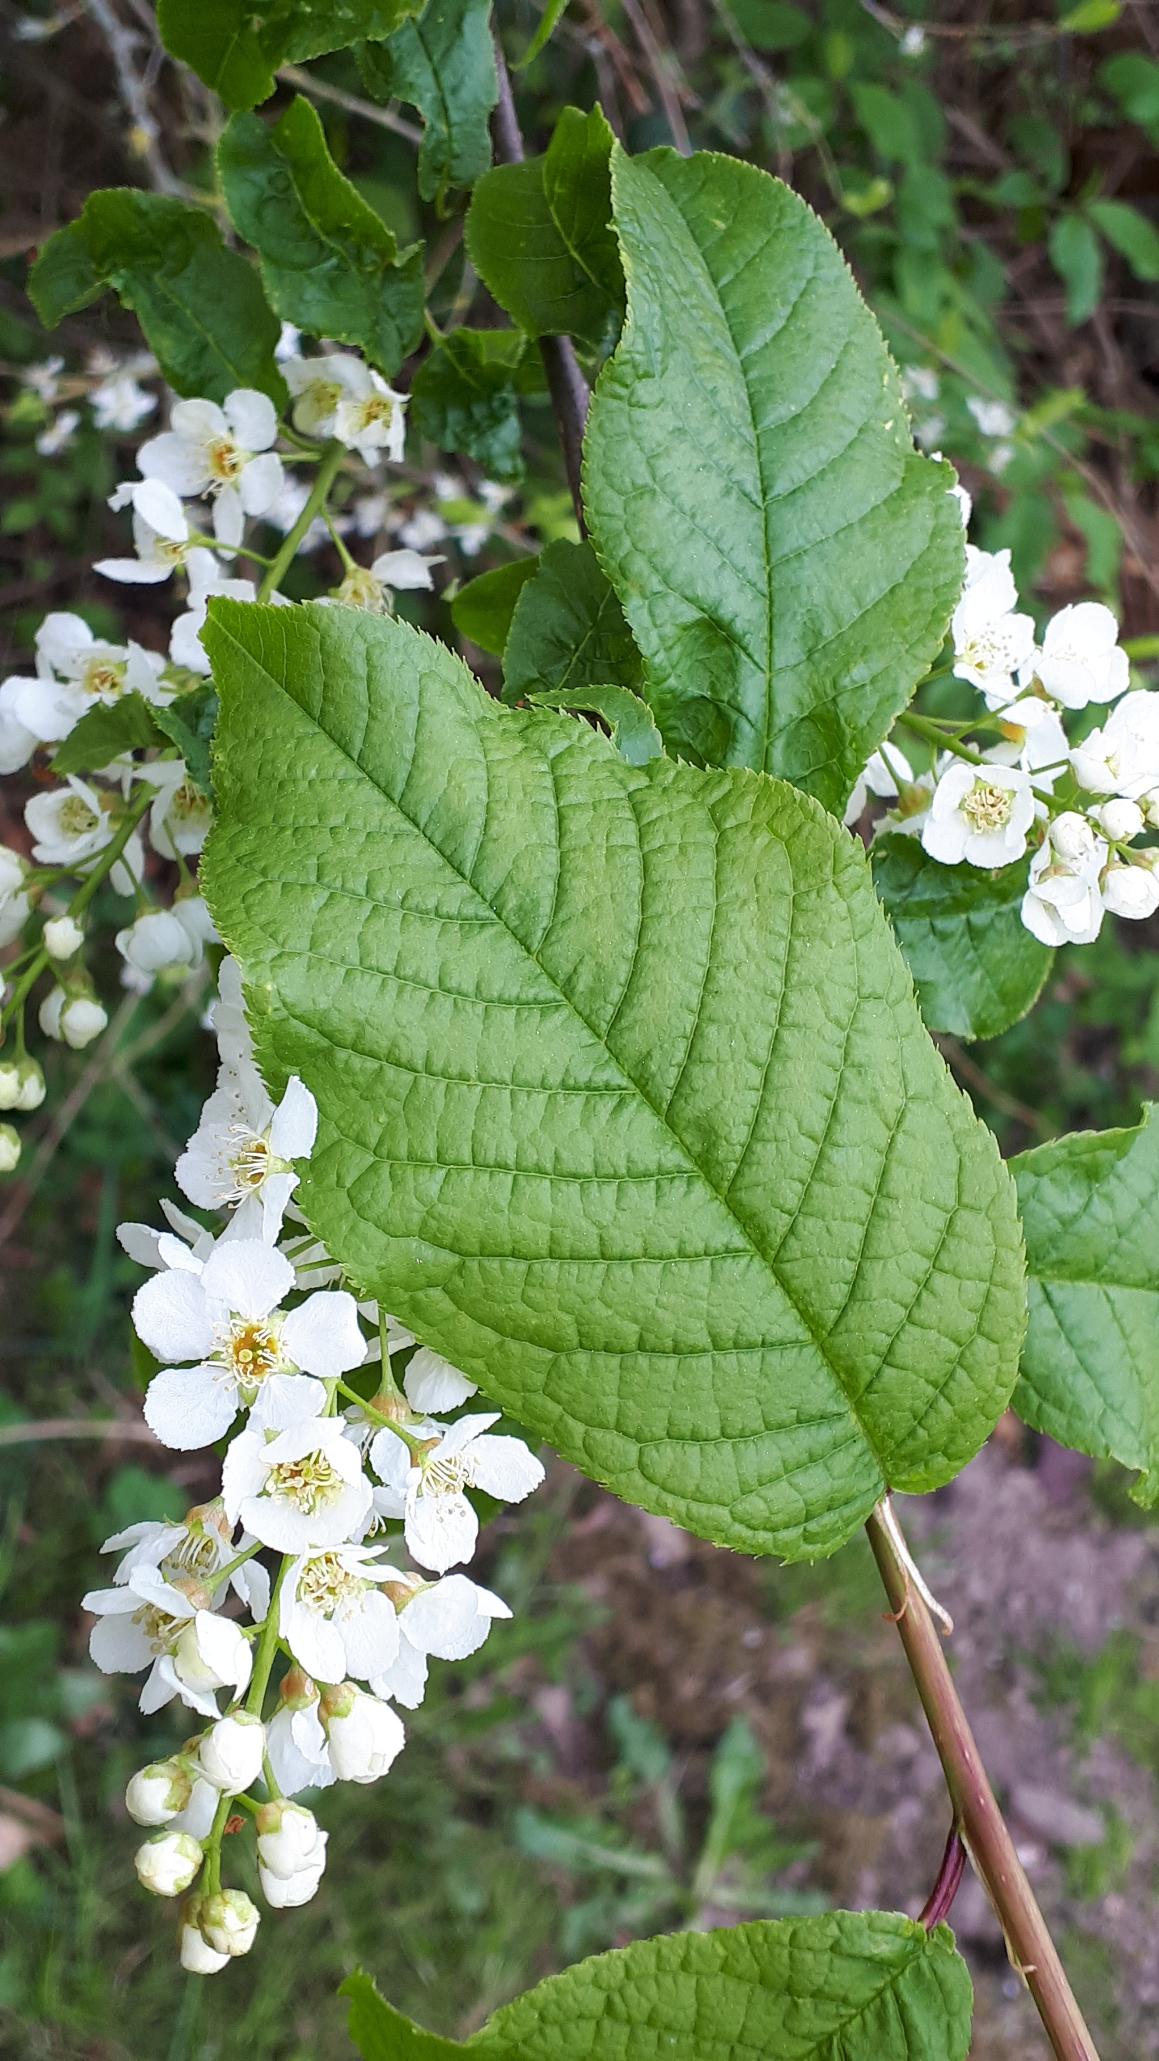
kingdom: Plantae
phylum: Tracheophyta
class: Magnoliopsida
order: Rosales
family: Rosaceae
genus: Prunus
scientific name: Prunus padus
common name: Almindelig hæg
